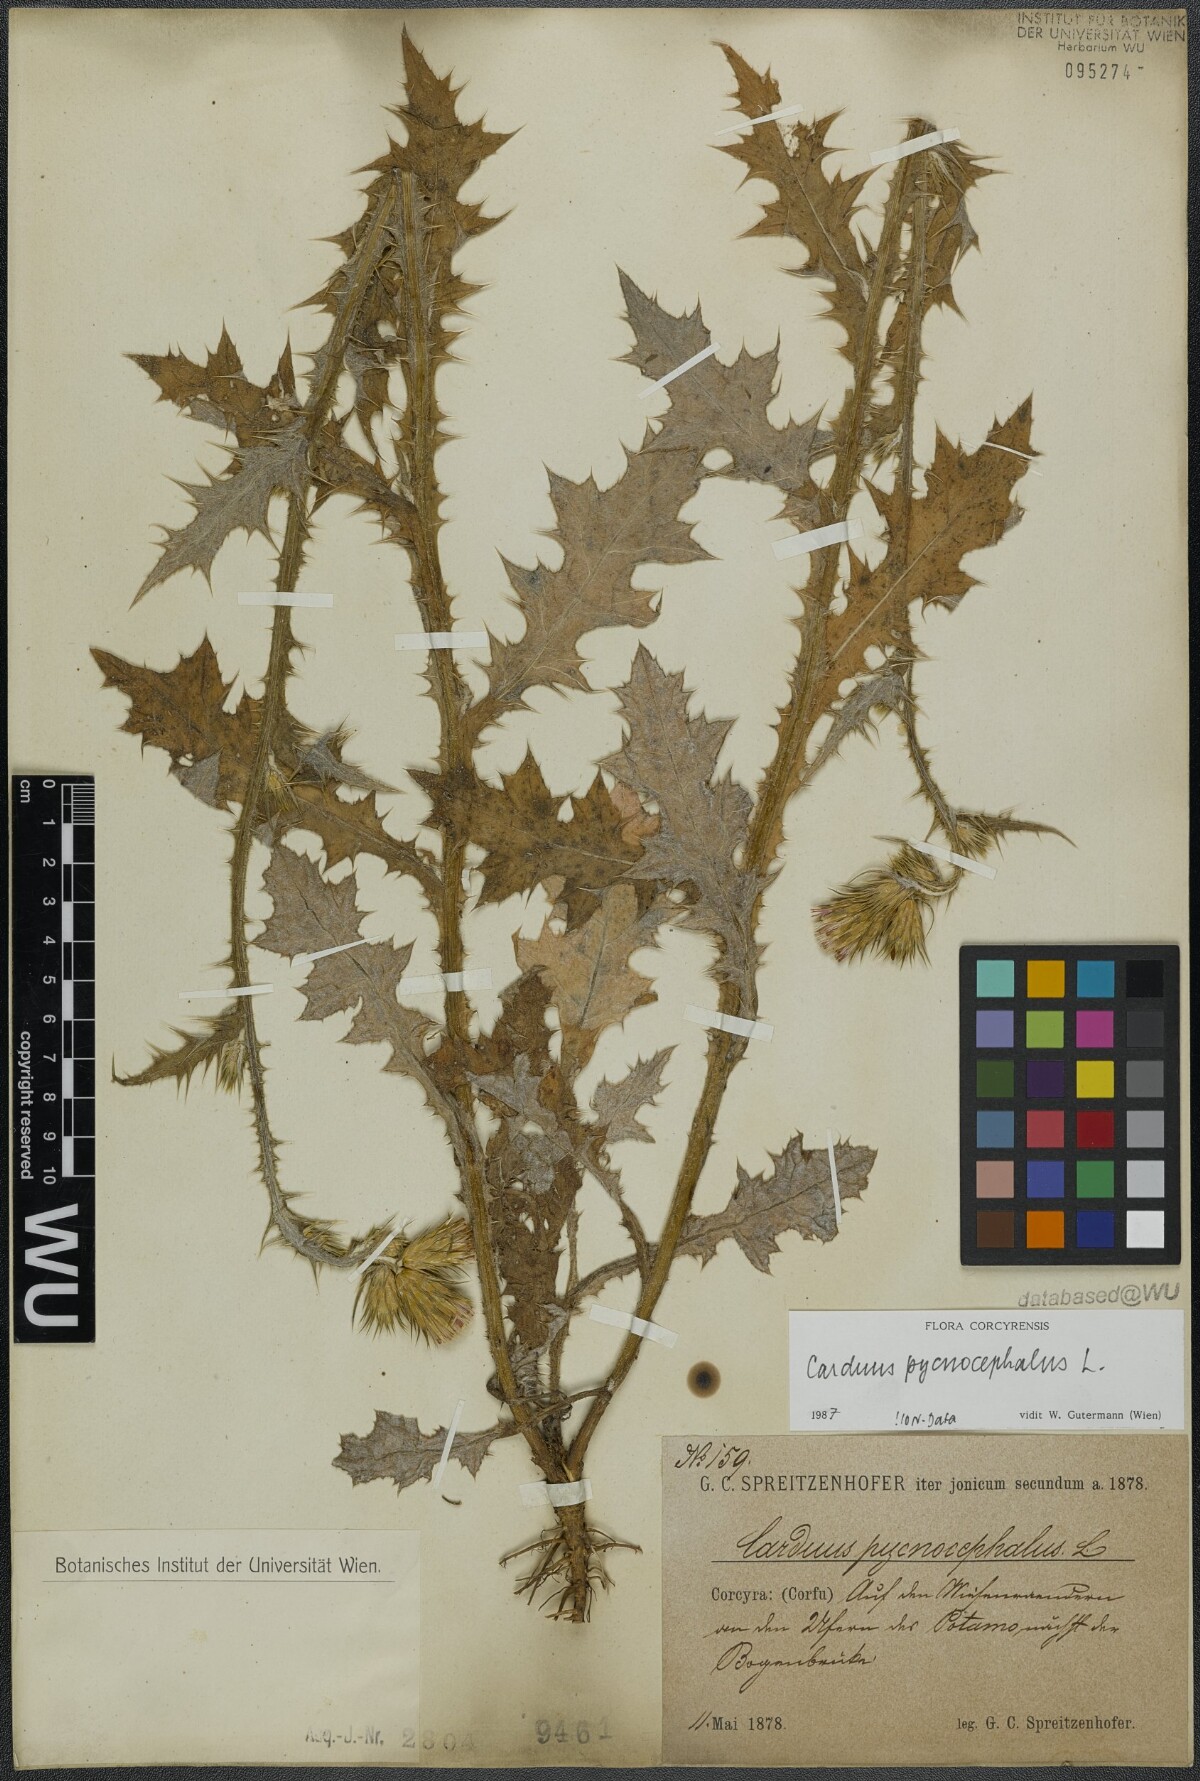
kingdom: Plantae
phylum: Tracheophyta
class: Magnoliopsida
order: Asterales
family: Asteraceae
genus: Carduus
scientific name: Carduus pycnocephalus
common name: Plymouth thistle
